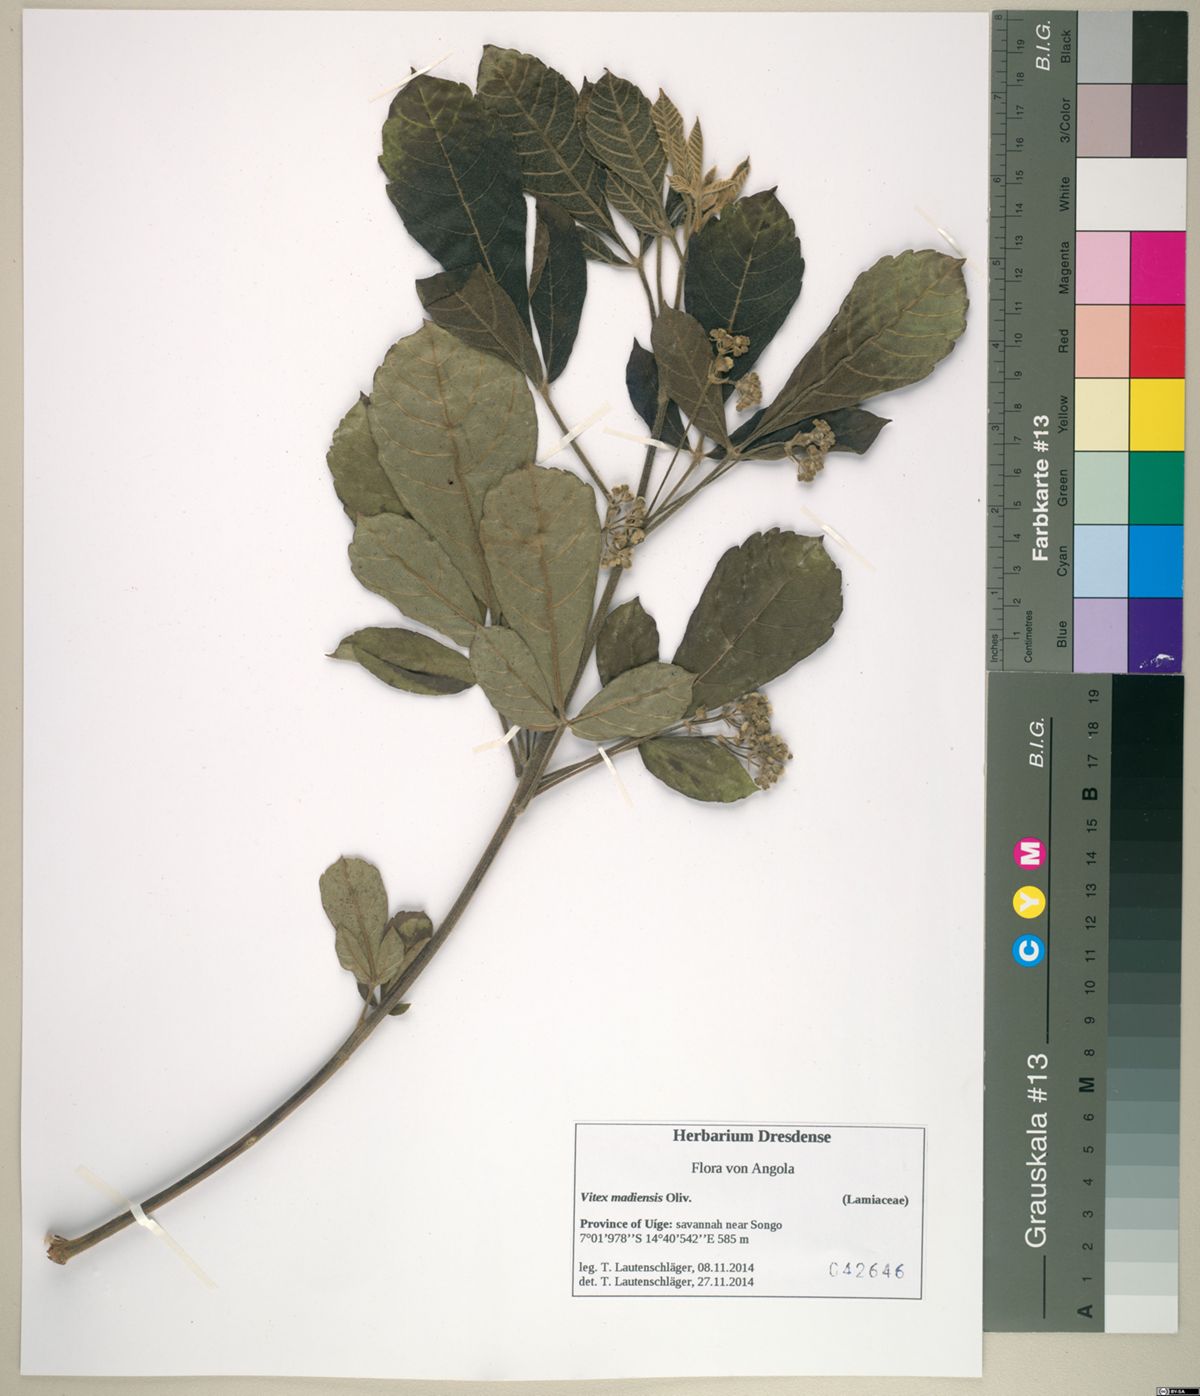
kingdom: Plantae
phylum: Tracheophyta
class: Magnoliopsida
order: Lamiales
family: Lamiaceae
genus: Vitex
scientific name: Vitex madiensis
